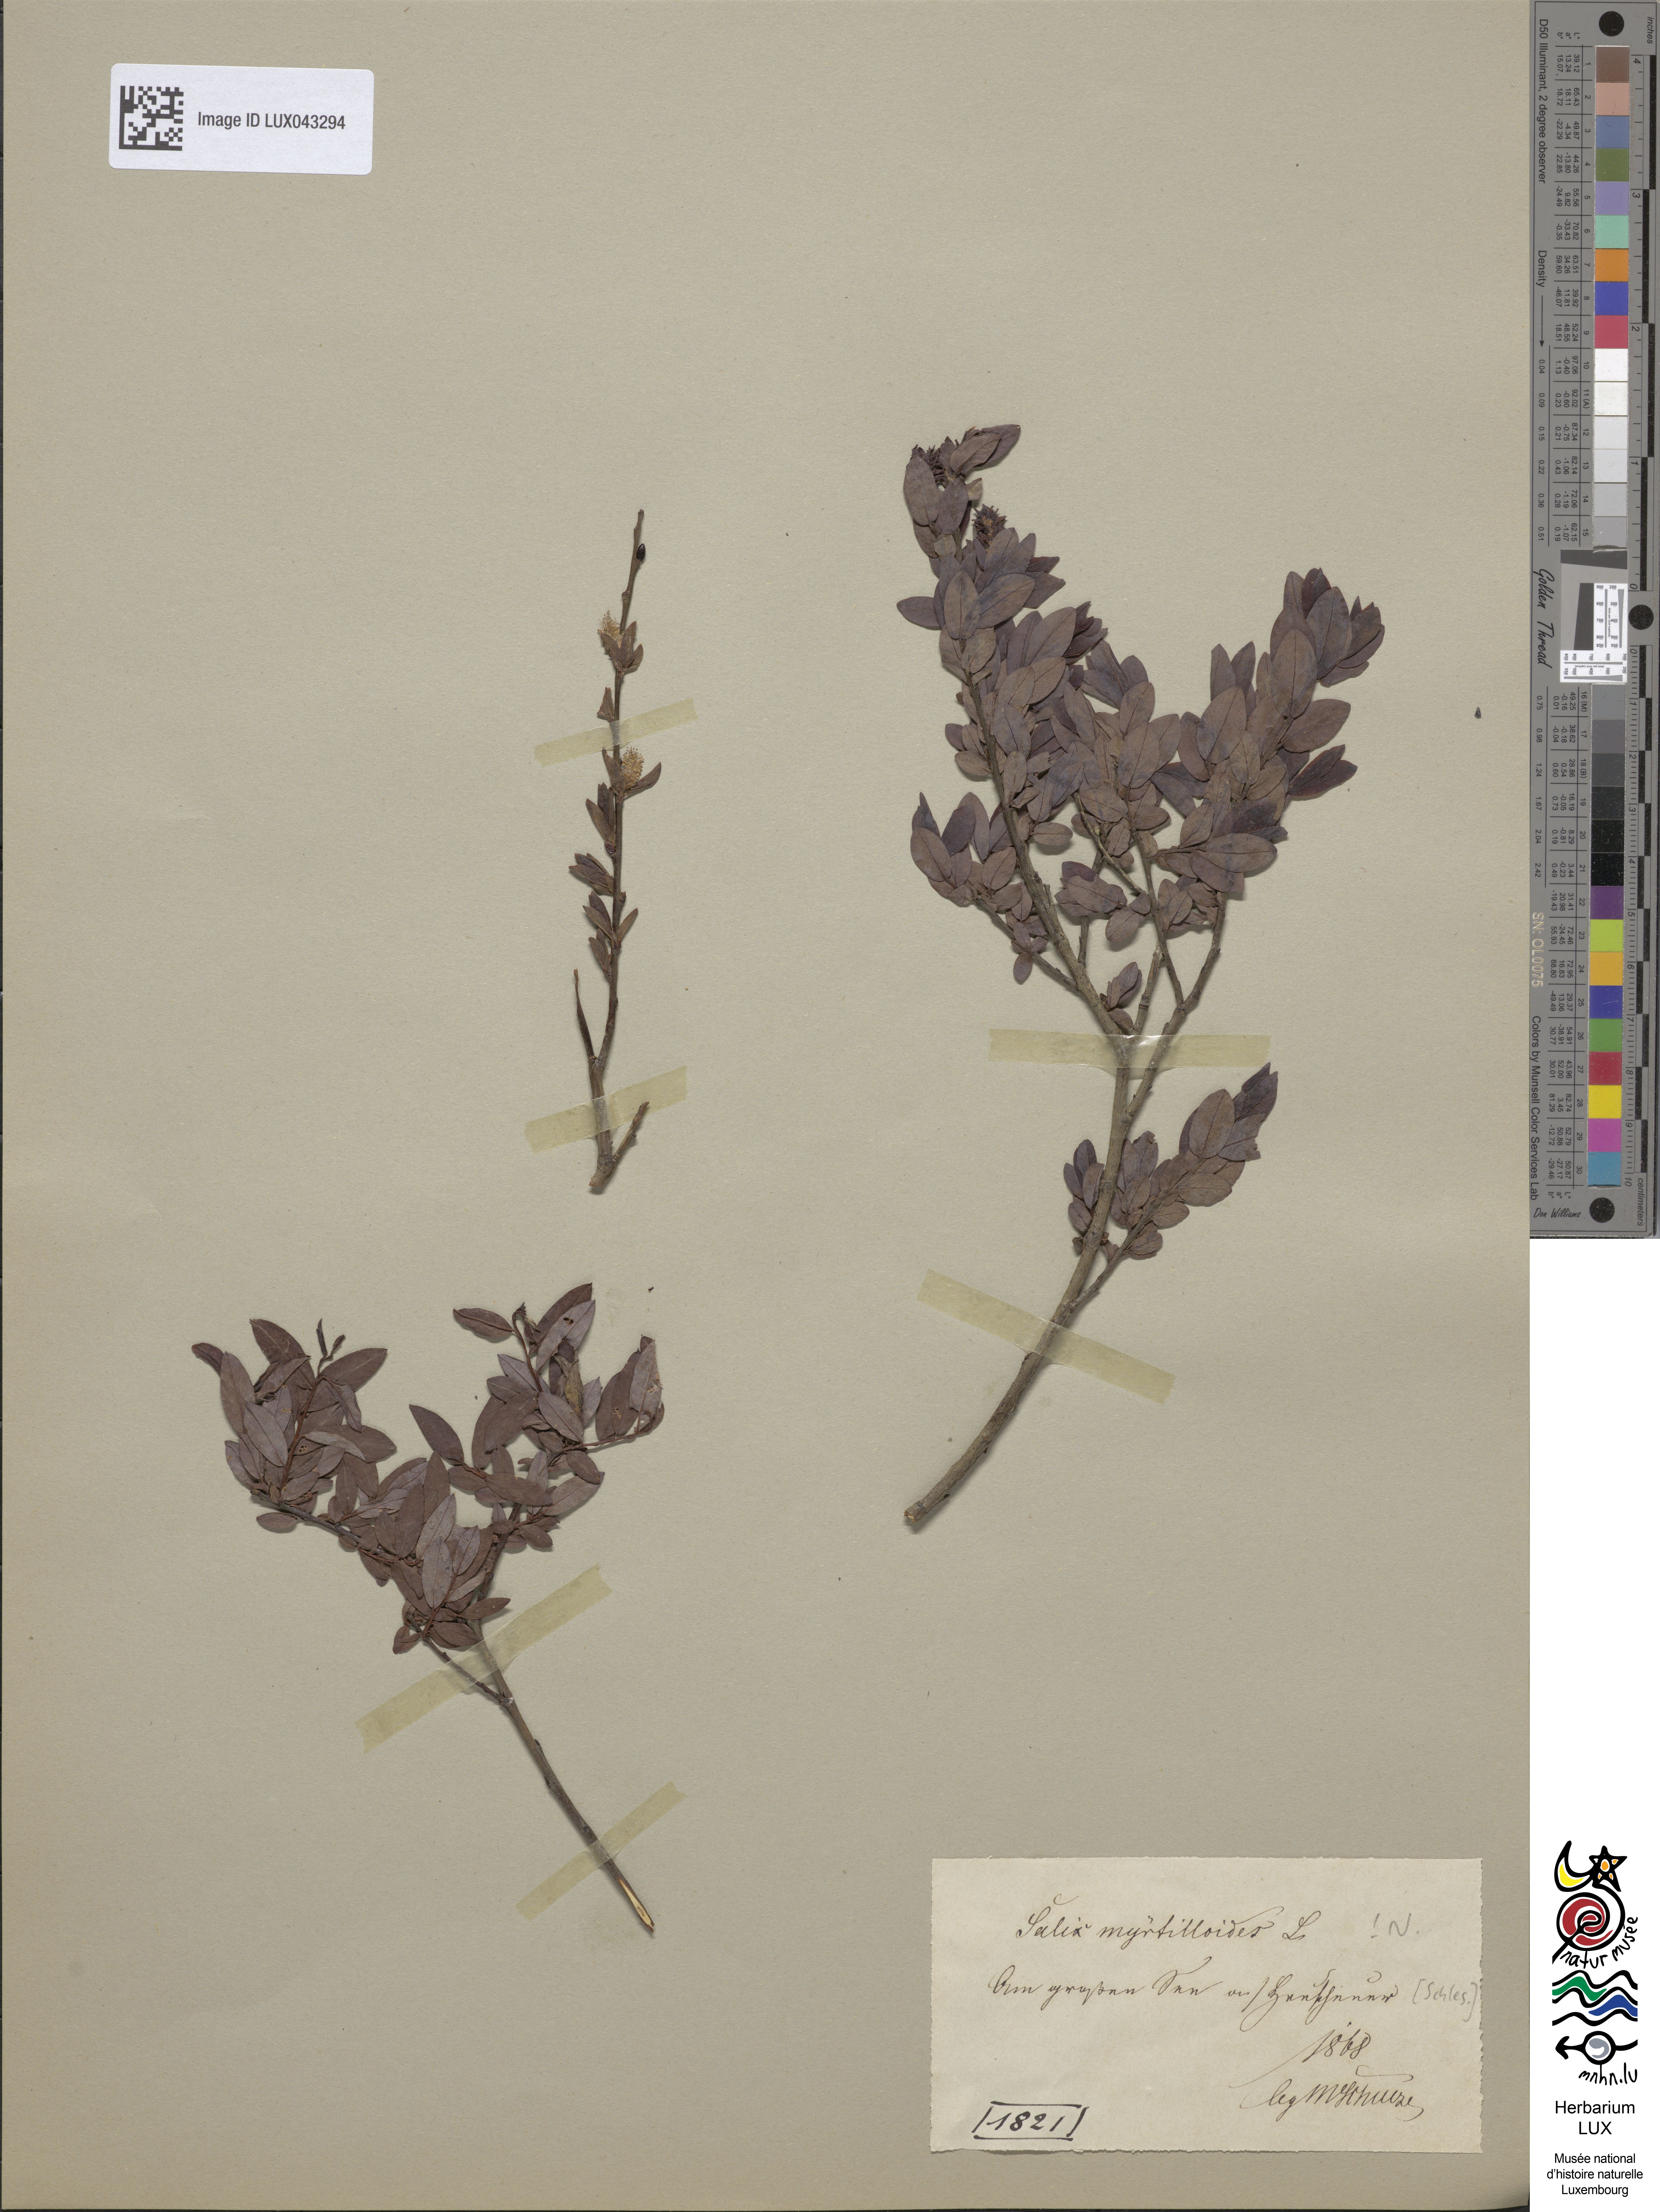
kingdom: Plantae
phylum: Tracheophyta
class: Magnoliopsida
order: Malpighiales
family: Salicaceae
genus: Salix
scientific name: Salix myrtilloides
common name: Myrtle-leaved willow
